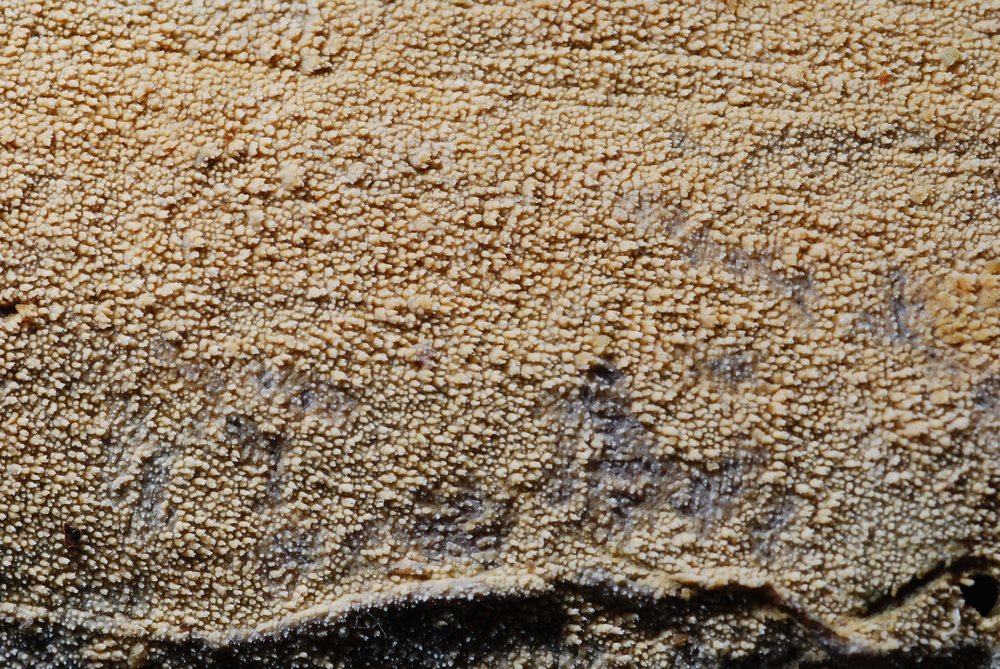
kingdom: Fungi
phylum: Basidiomycota
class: Agaricomycetes
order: Hymenochaetales
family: Schizoporaceae
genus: Xylodon
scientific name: Xylodon brevisetus
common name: tætvortet tandsvamp
